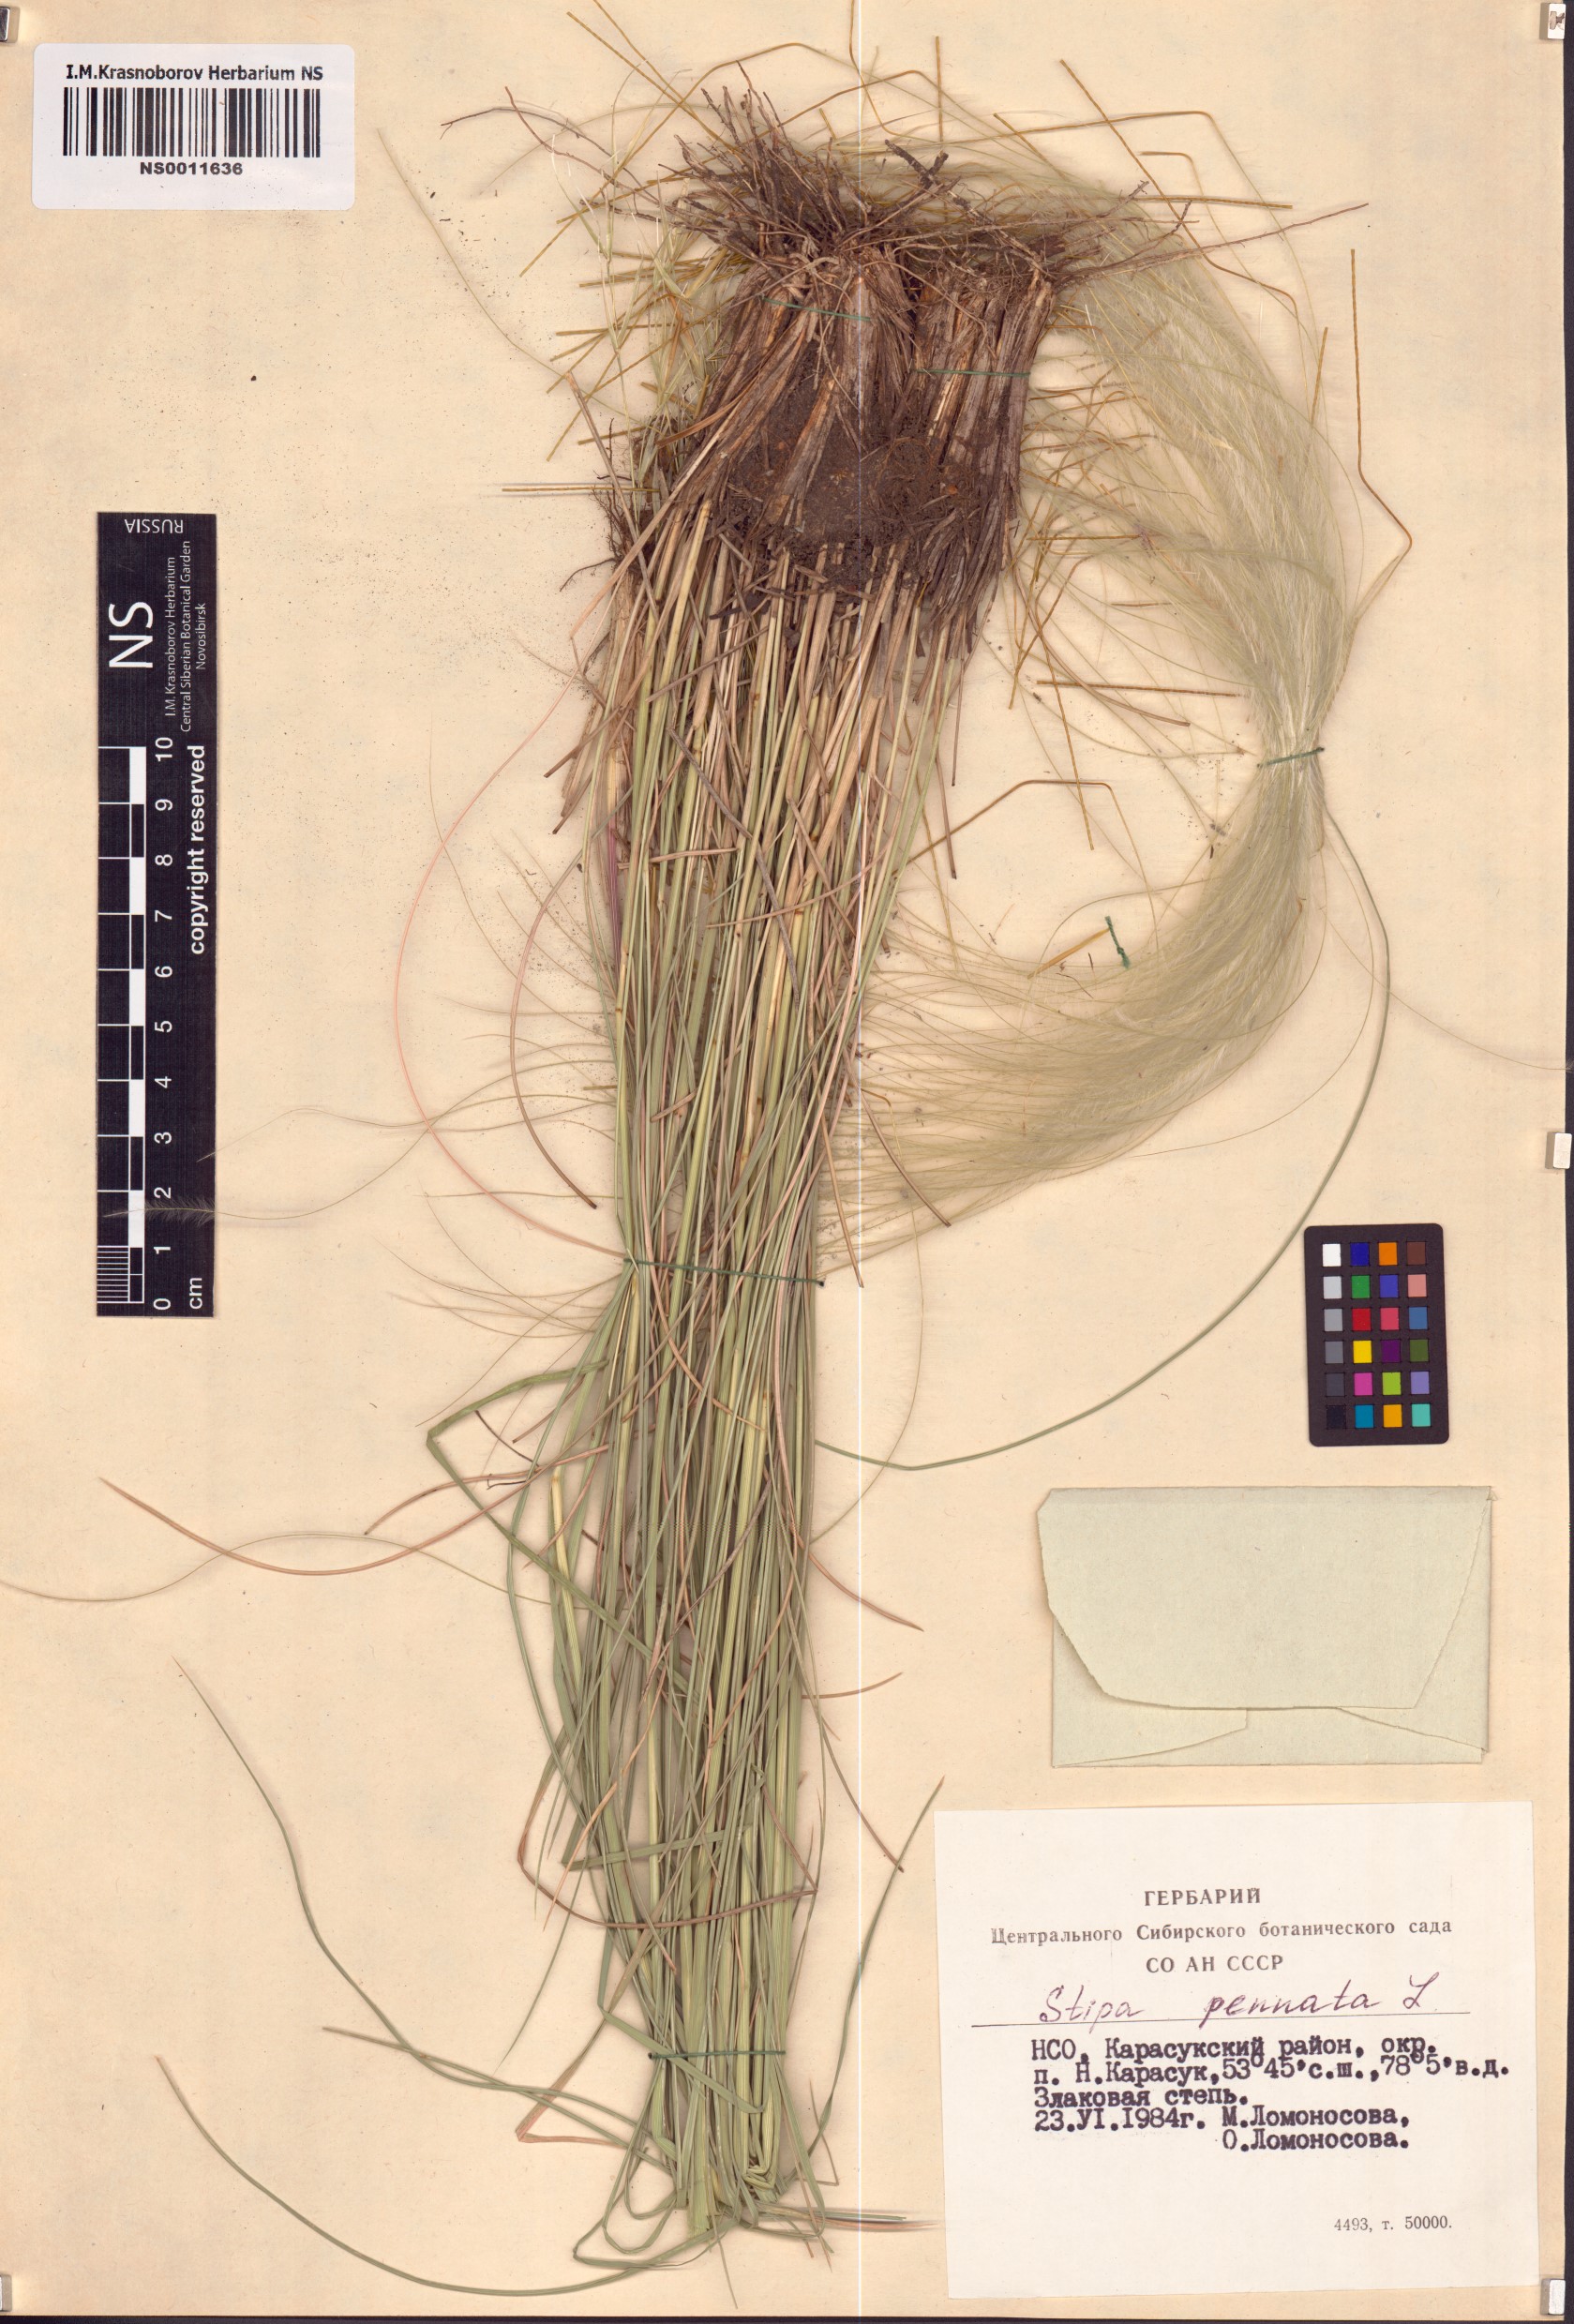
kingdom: Plantae
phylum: Tracheophyta
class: Liliopsida
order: Poales
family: Poaceae
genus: Stipa
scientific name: Stipa pennata
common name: European feather grass
